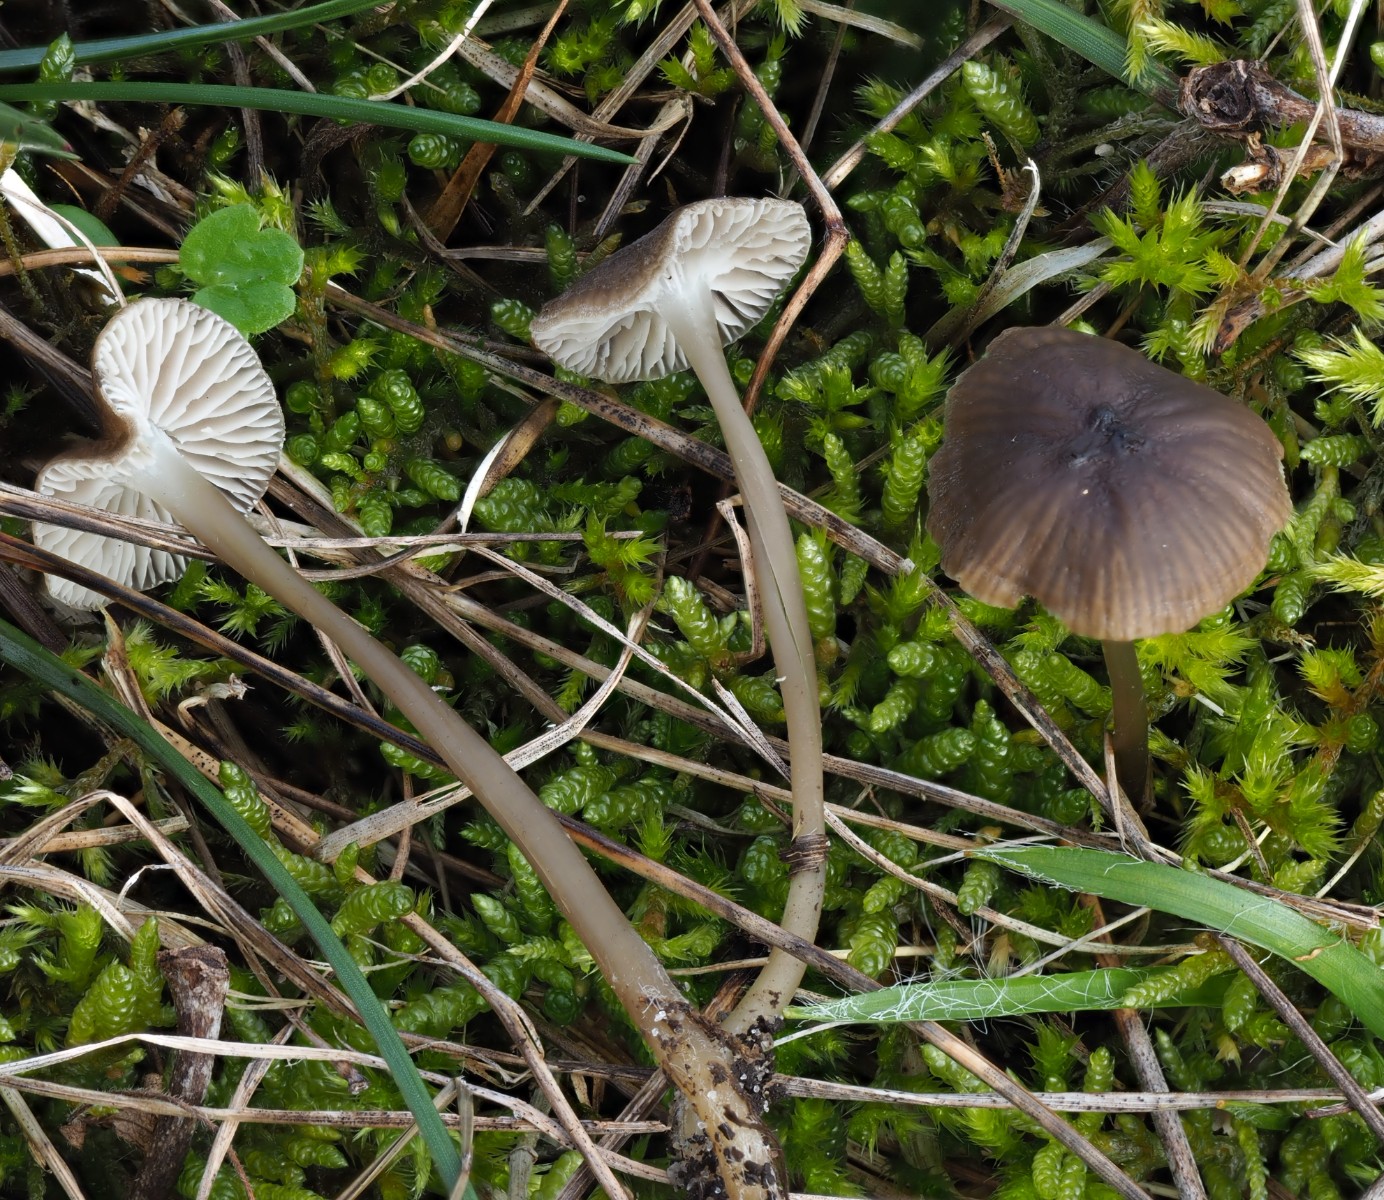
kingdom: Fungi
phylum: Basidiomycota
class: Agaricomycetes
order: Agaricales
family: Porotheleaceae
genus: Phloeomana
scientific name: Phloeomana atropapillata
